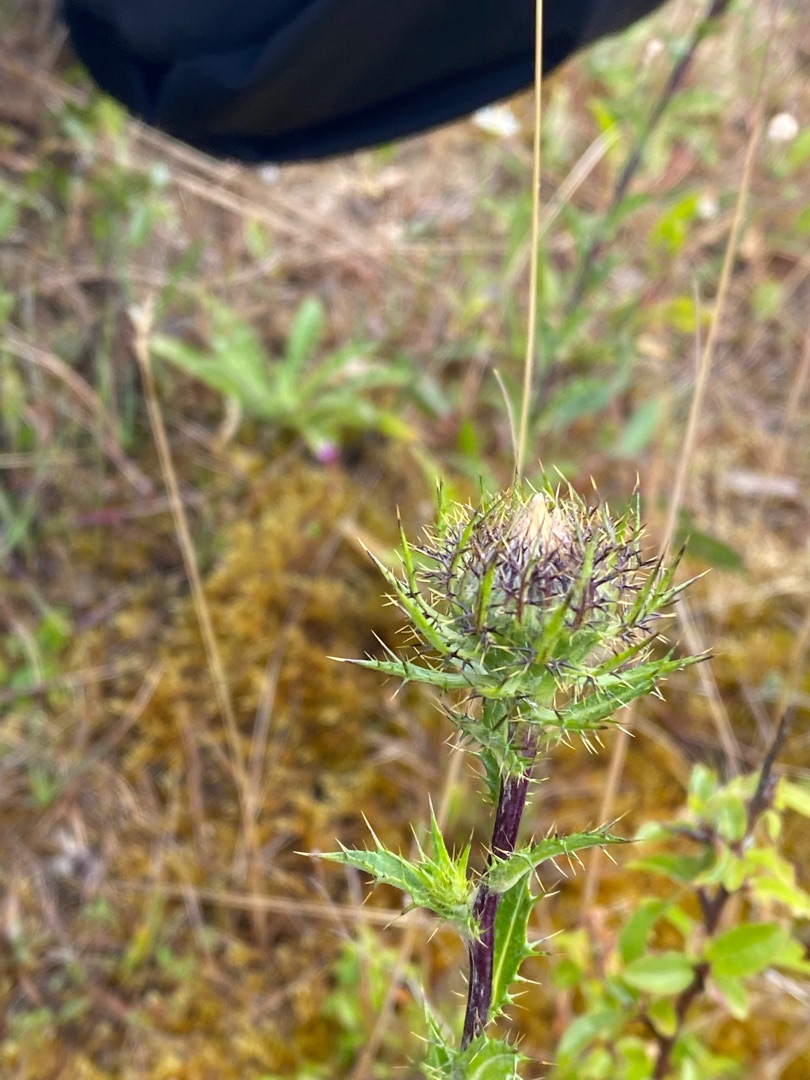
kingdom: Plantae
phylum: Tracheophyta
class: Magnoliopsida
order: Asterales
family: Asteraceae
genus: Carlina
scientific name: Carlina vulgaris
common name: Bakketidsel
